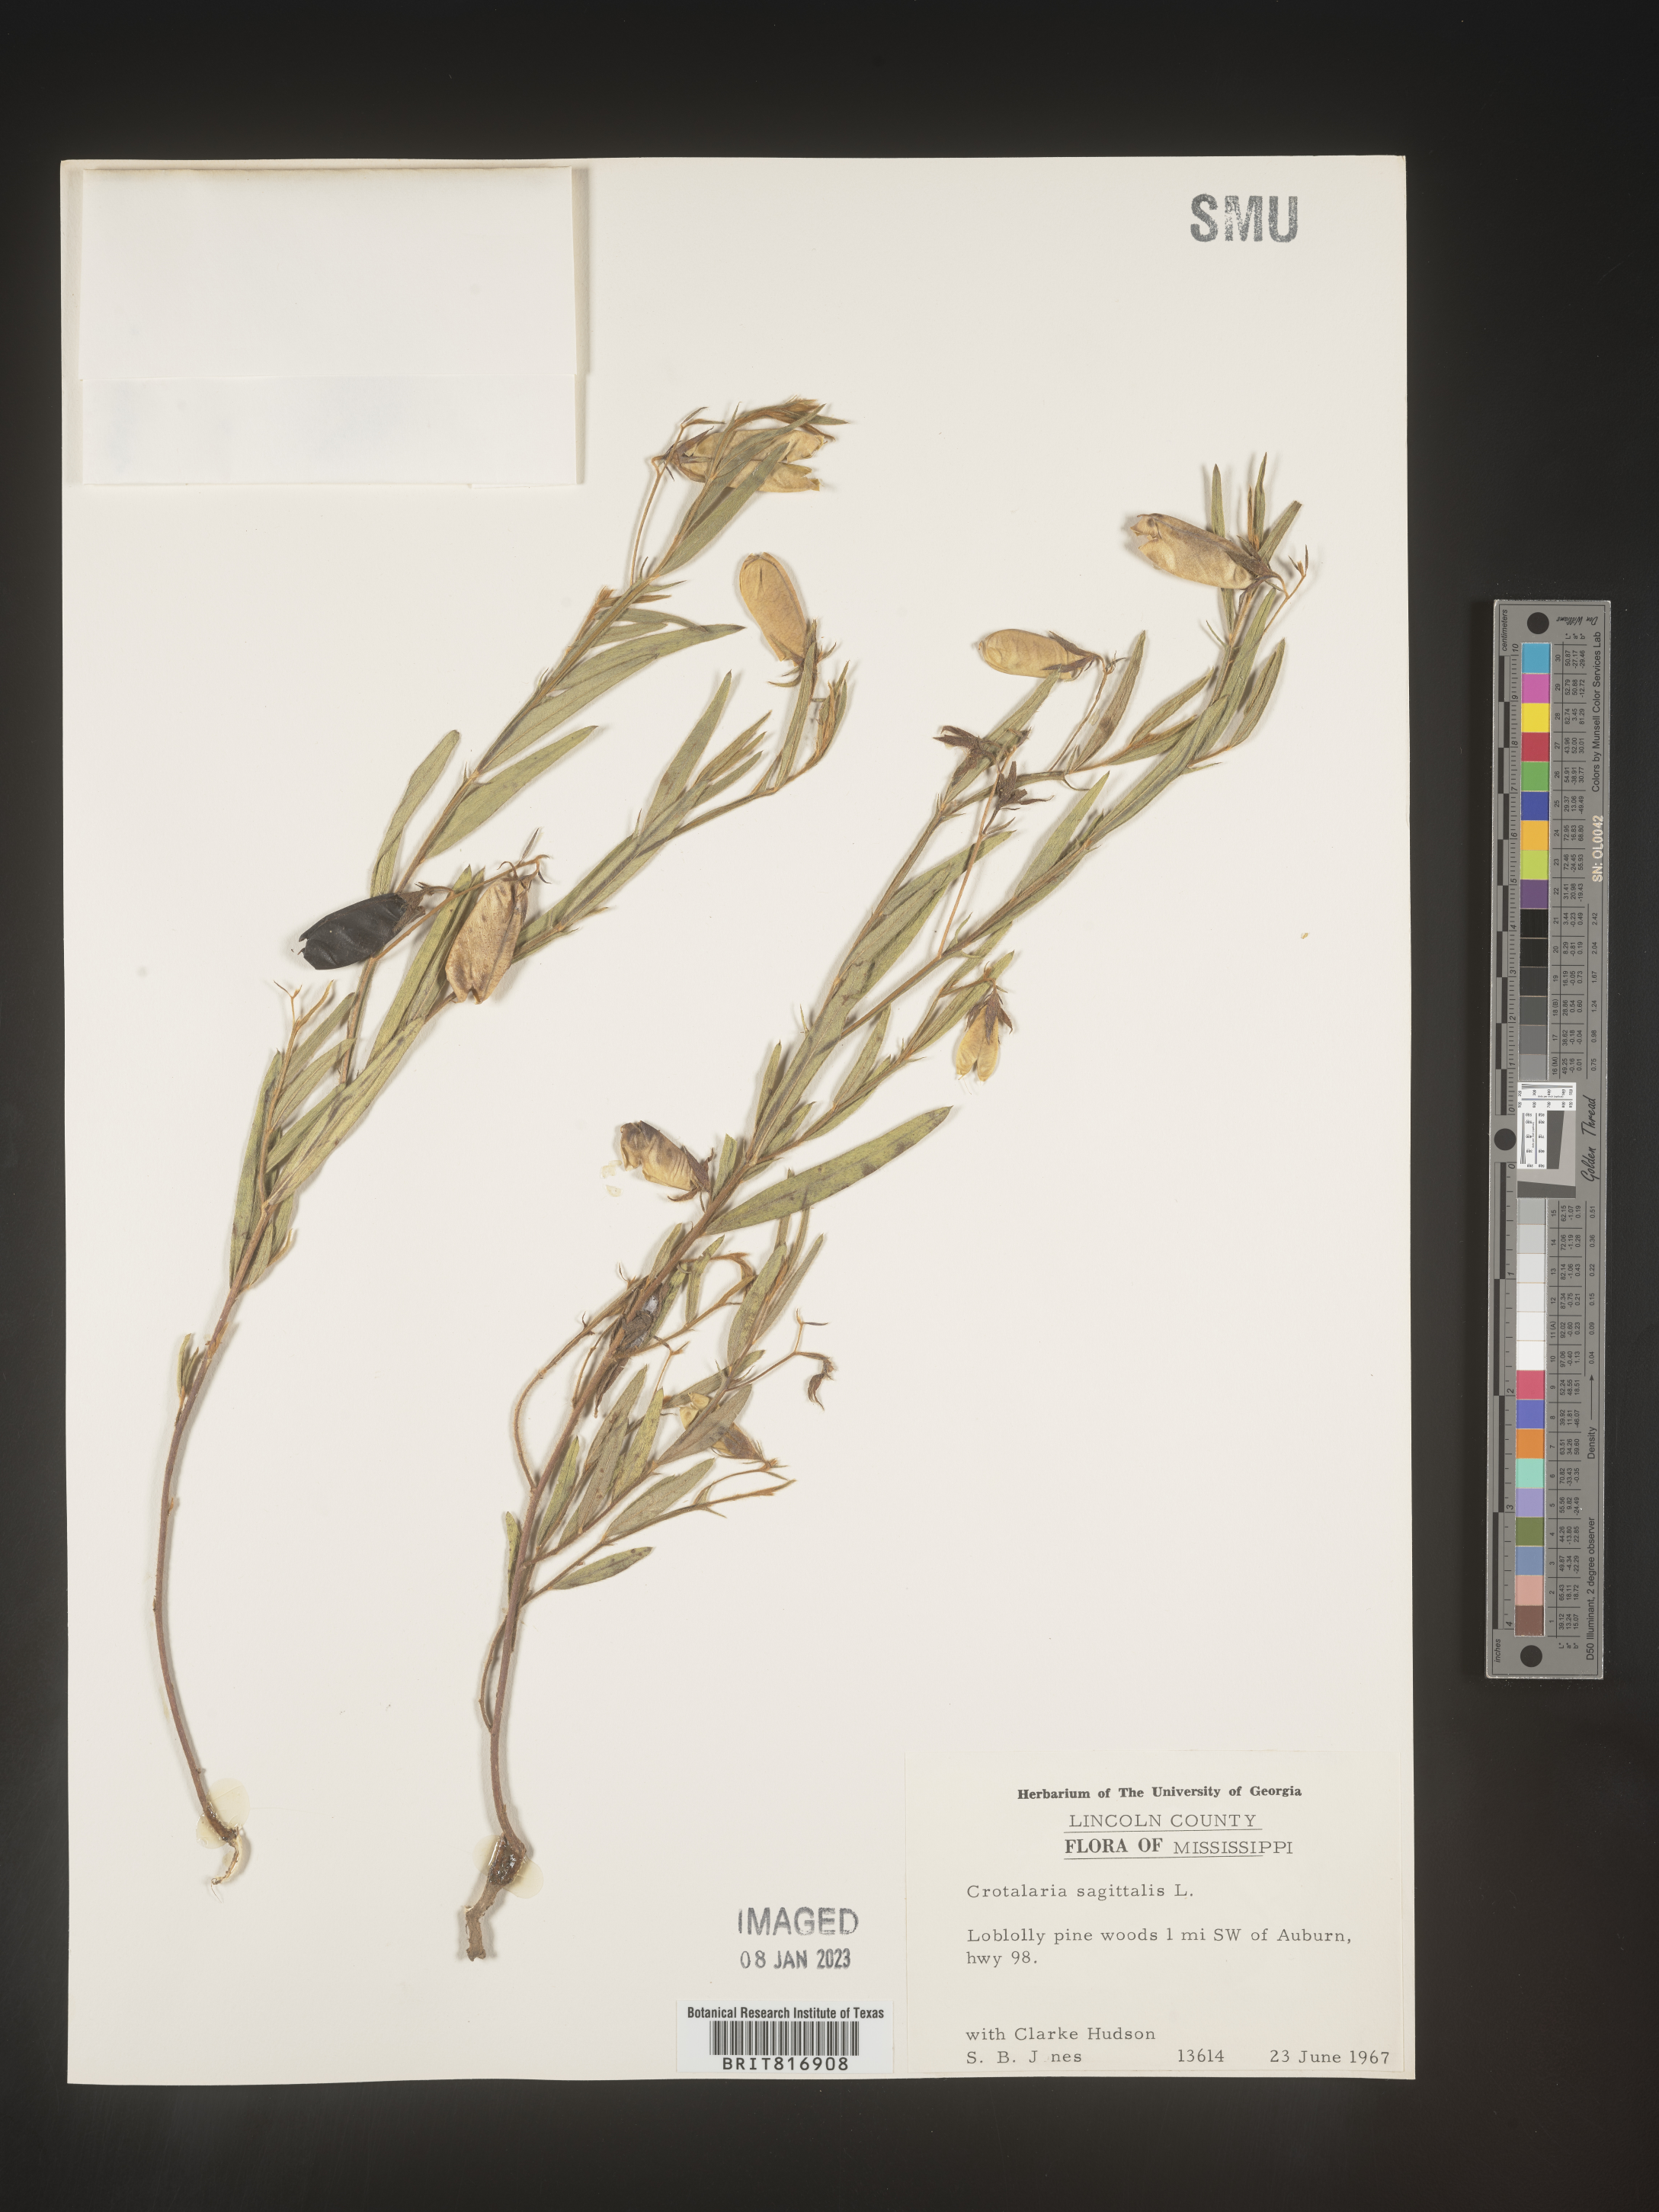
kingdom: Plantae
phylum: Tracheophyta
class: Magnoliopsida
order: Fabales
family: Fabaceae
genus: Crotalaria
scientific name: Crotalaria sagittalis
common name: Arrowhead rattlebox
